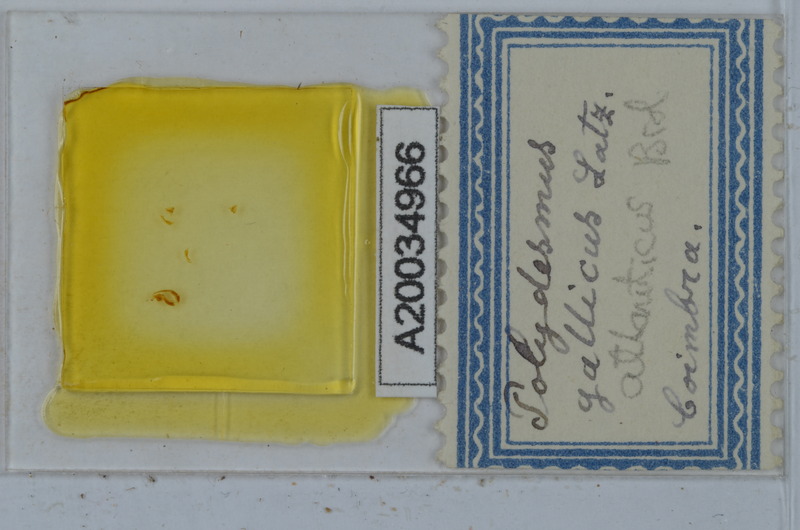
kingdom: Animalia
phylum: Arthropoda
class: Diplopoda
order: Polydesmida
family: Polydesmidae
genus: Polydesmus
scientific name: Polydesmus coriaceus
